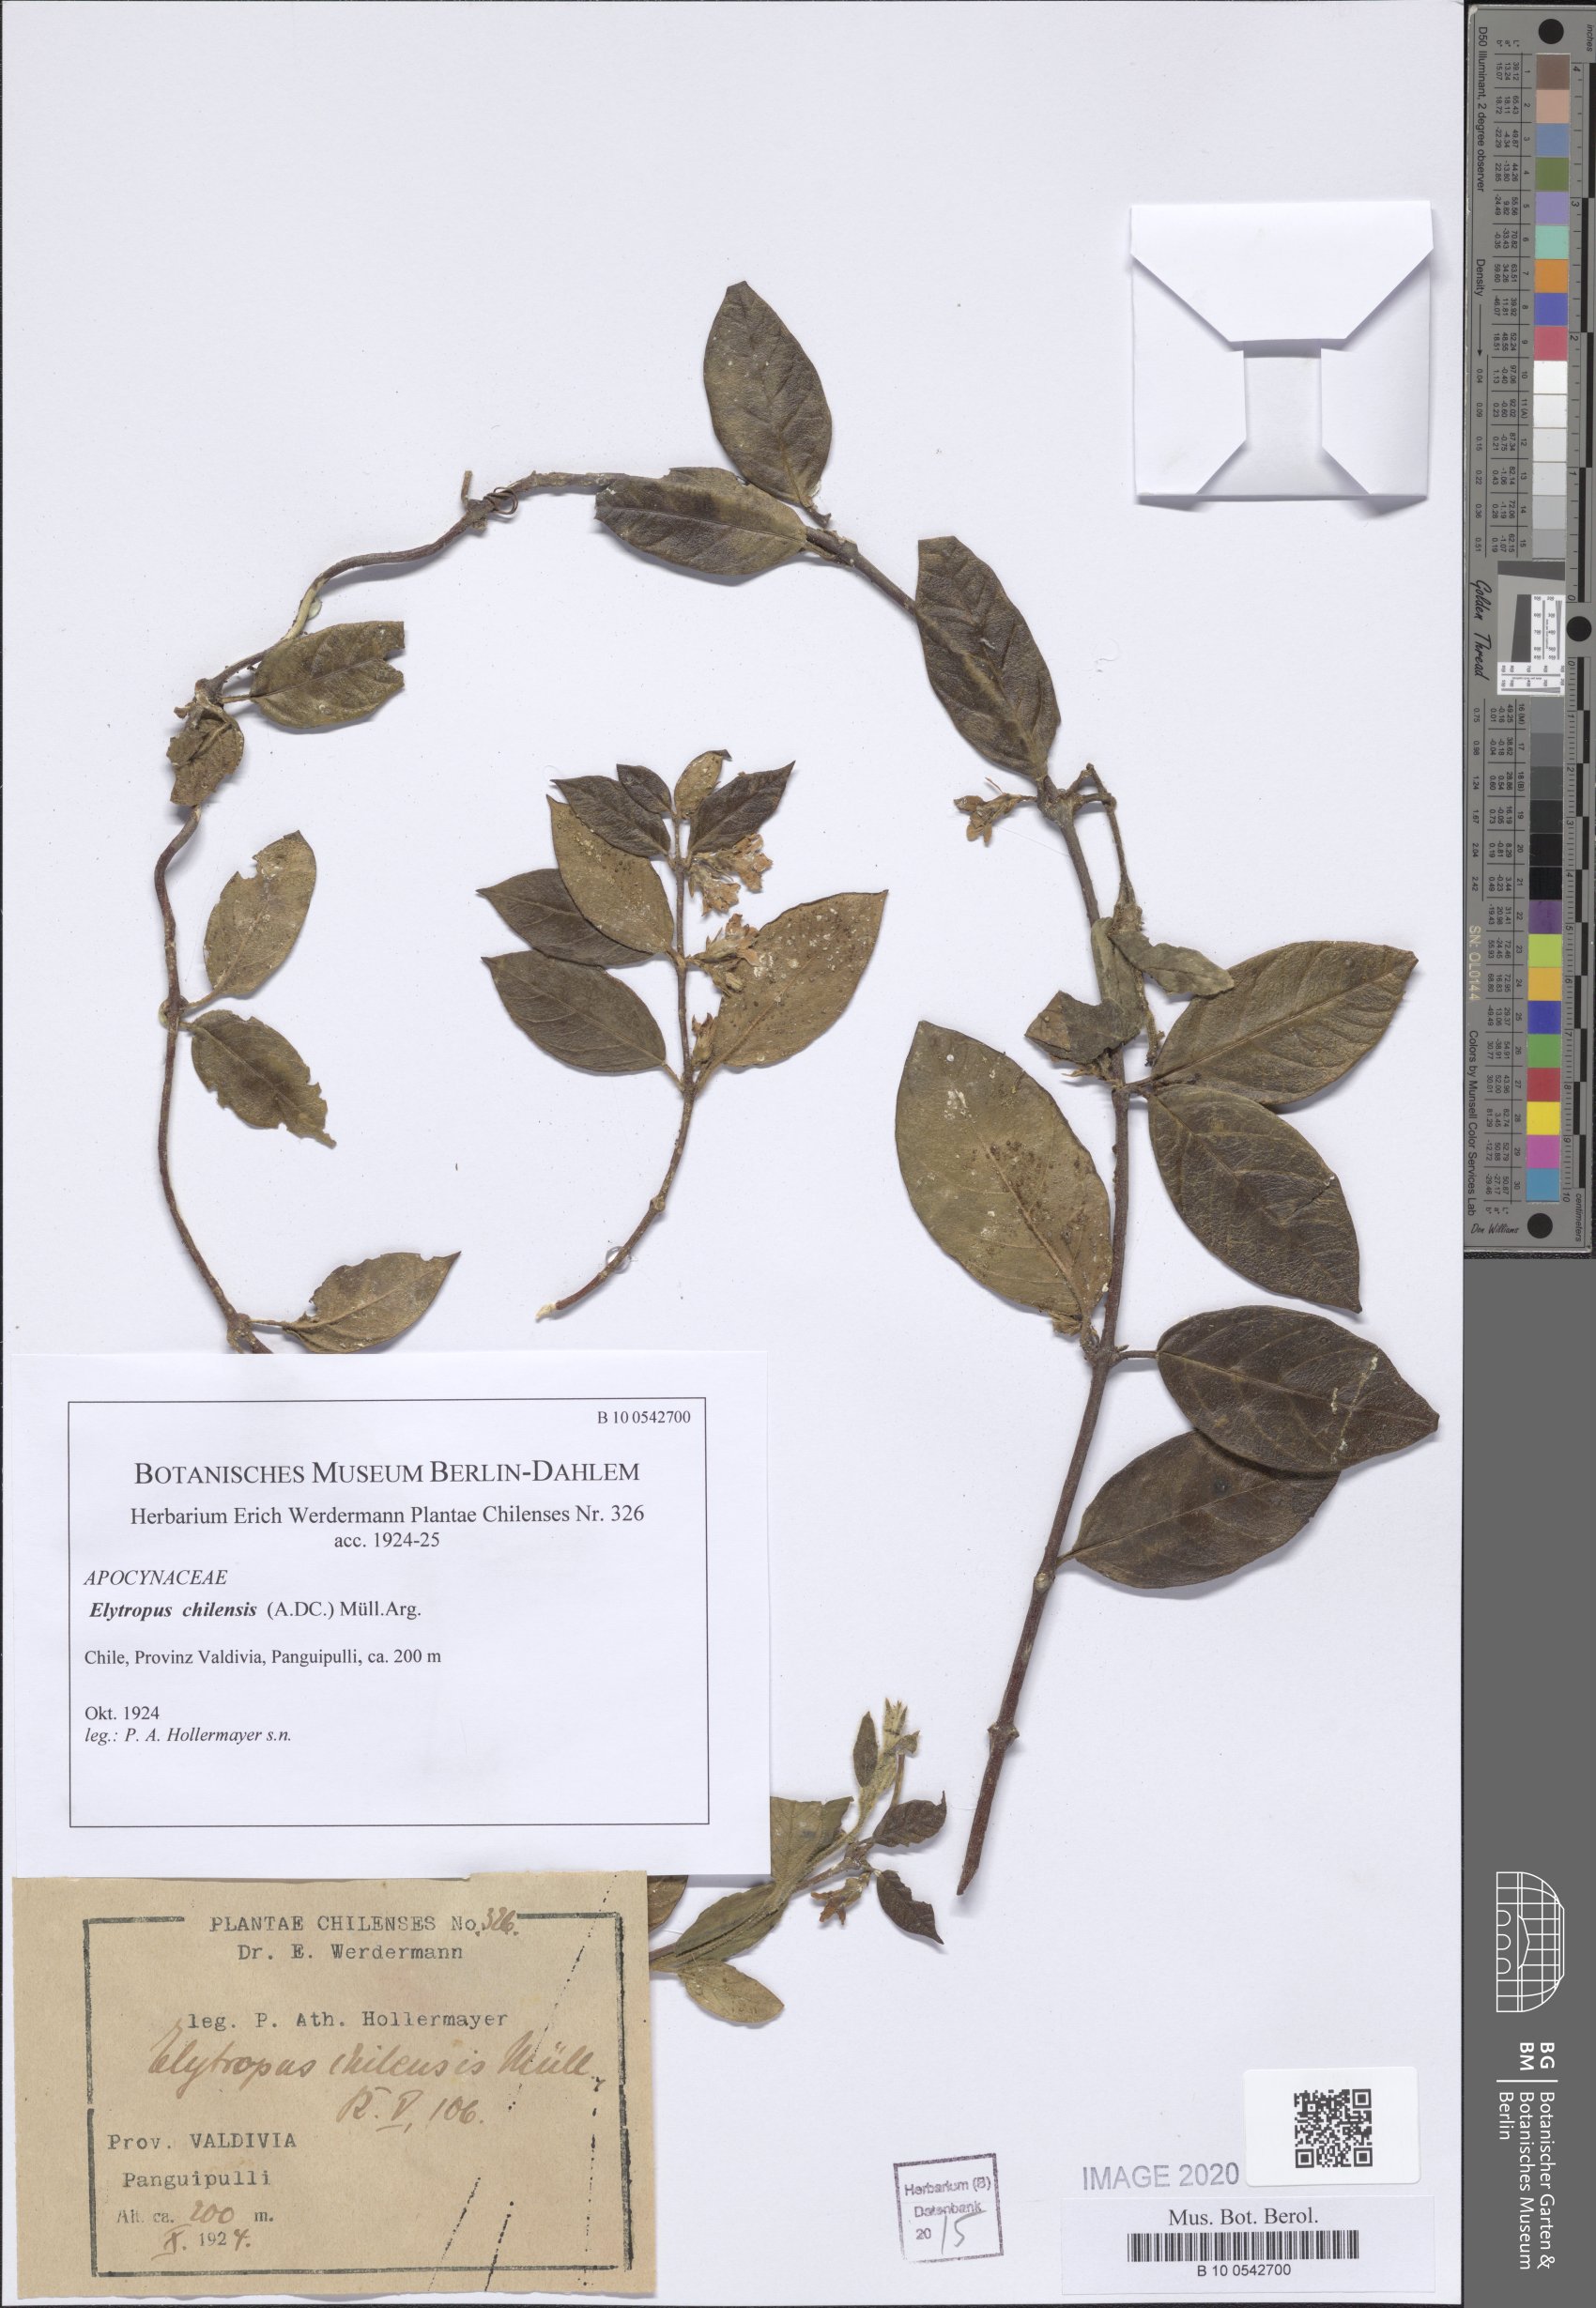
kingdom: Plantae
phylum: Tracheophyta
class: Magnoliopsida
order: Gentianales
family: Apocynaceae
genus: Mandevilla
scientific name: Mandevilla pubescens
